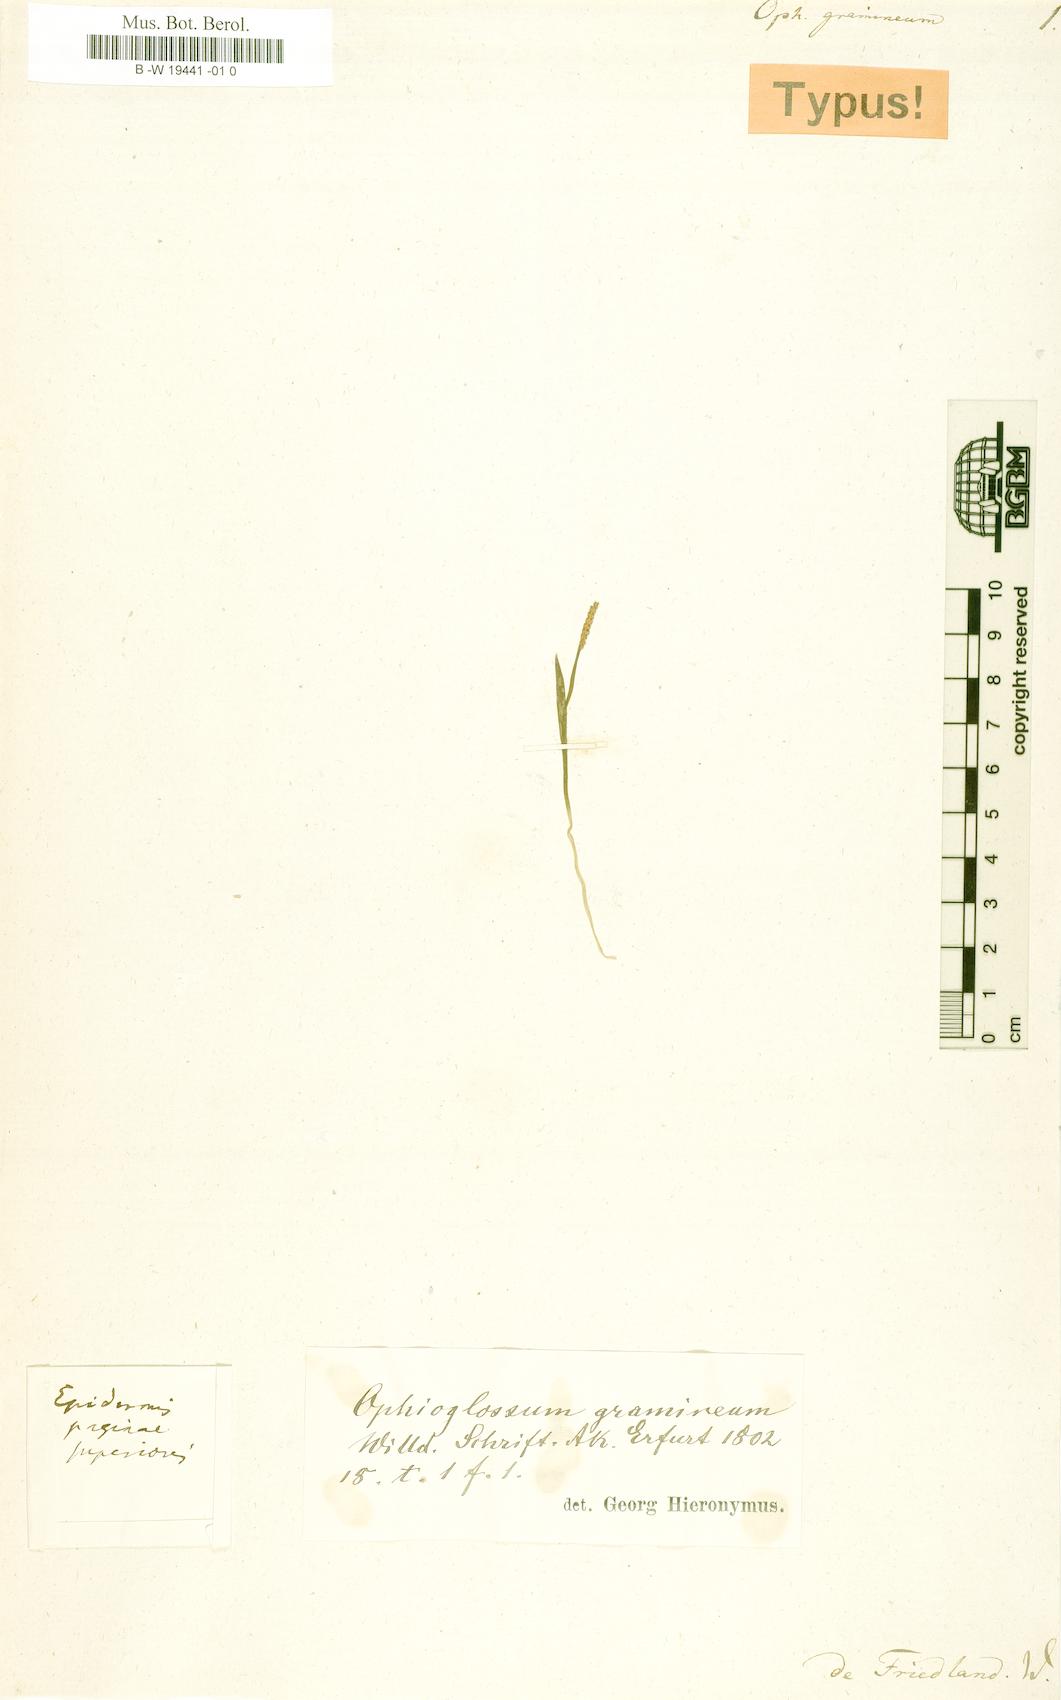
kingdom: Plantae
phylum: Tracheophyta
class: Polypodiopsida
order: Ophioglossales
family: Ophioglossaceae
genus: Ophioglossum
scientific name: Ophioglossum gramineum
